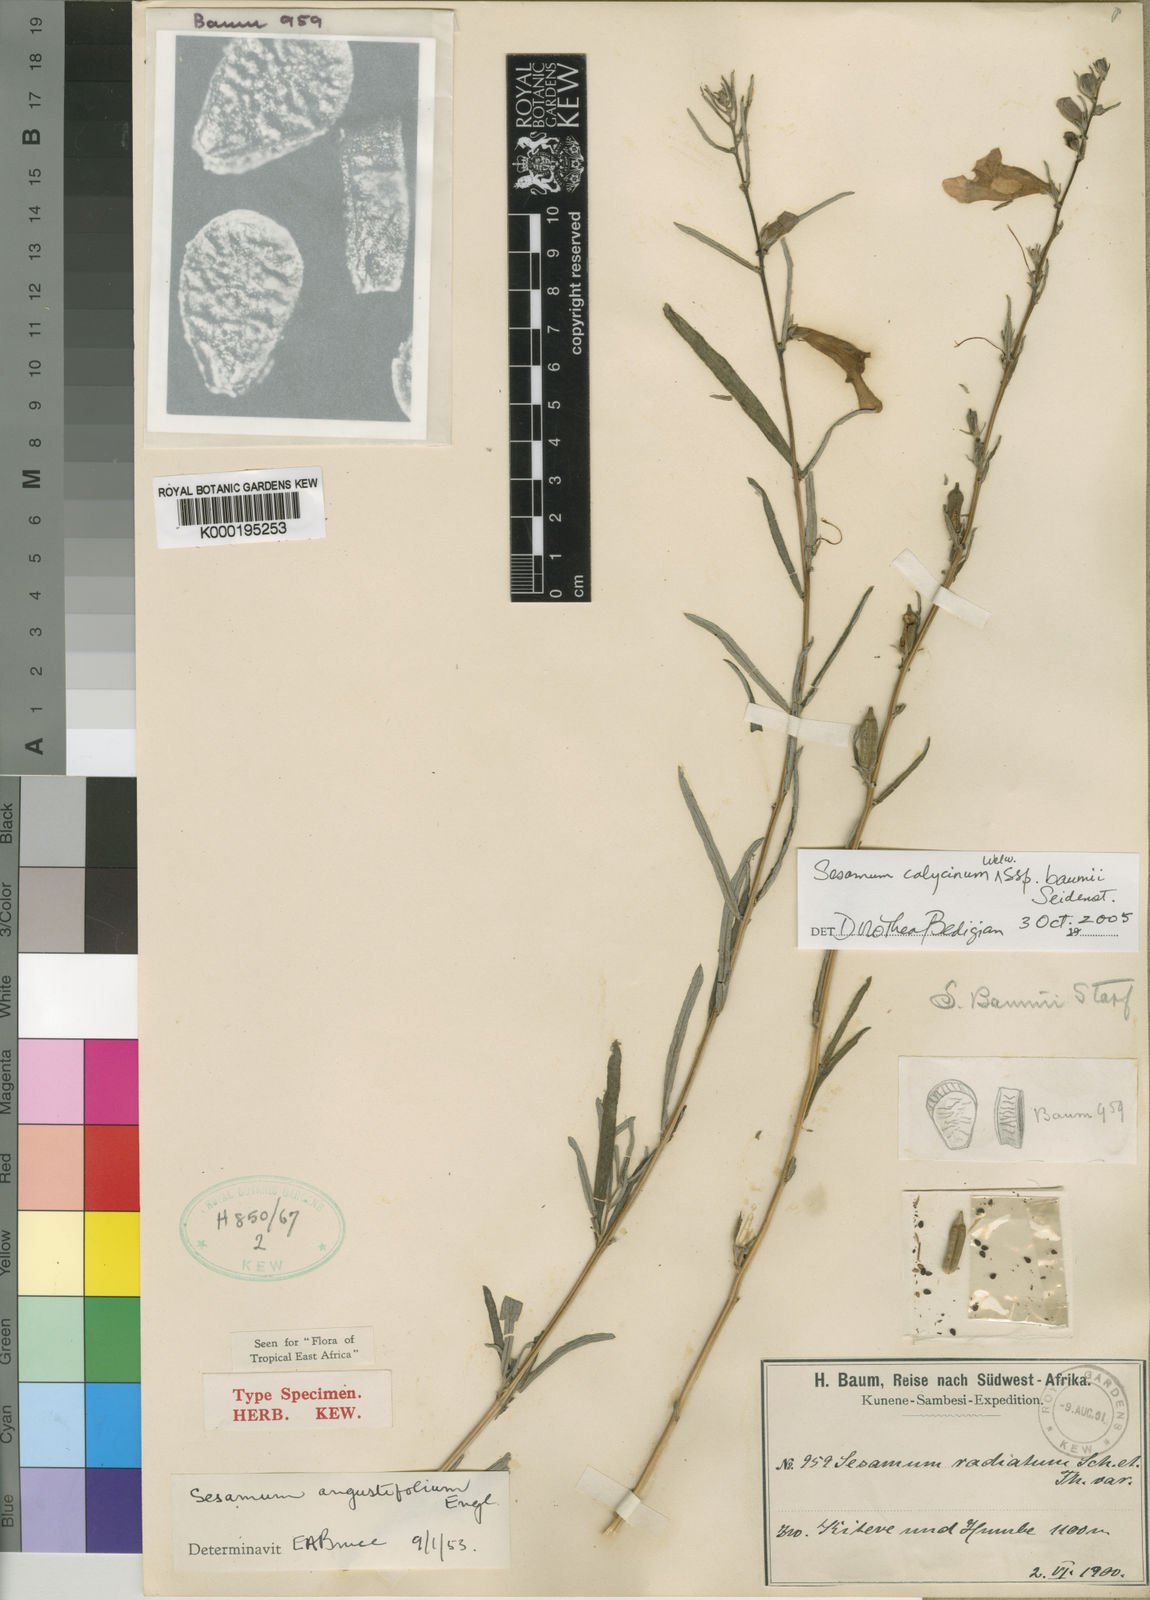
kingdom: Plantae
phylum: Tracheophyta
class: Magnoliopsida
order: Lamiales
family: Pedaliaceae
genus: Sesamum
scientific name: Sesamum calycinum
